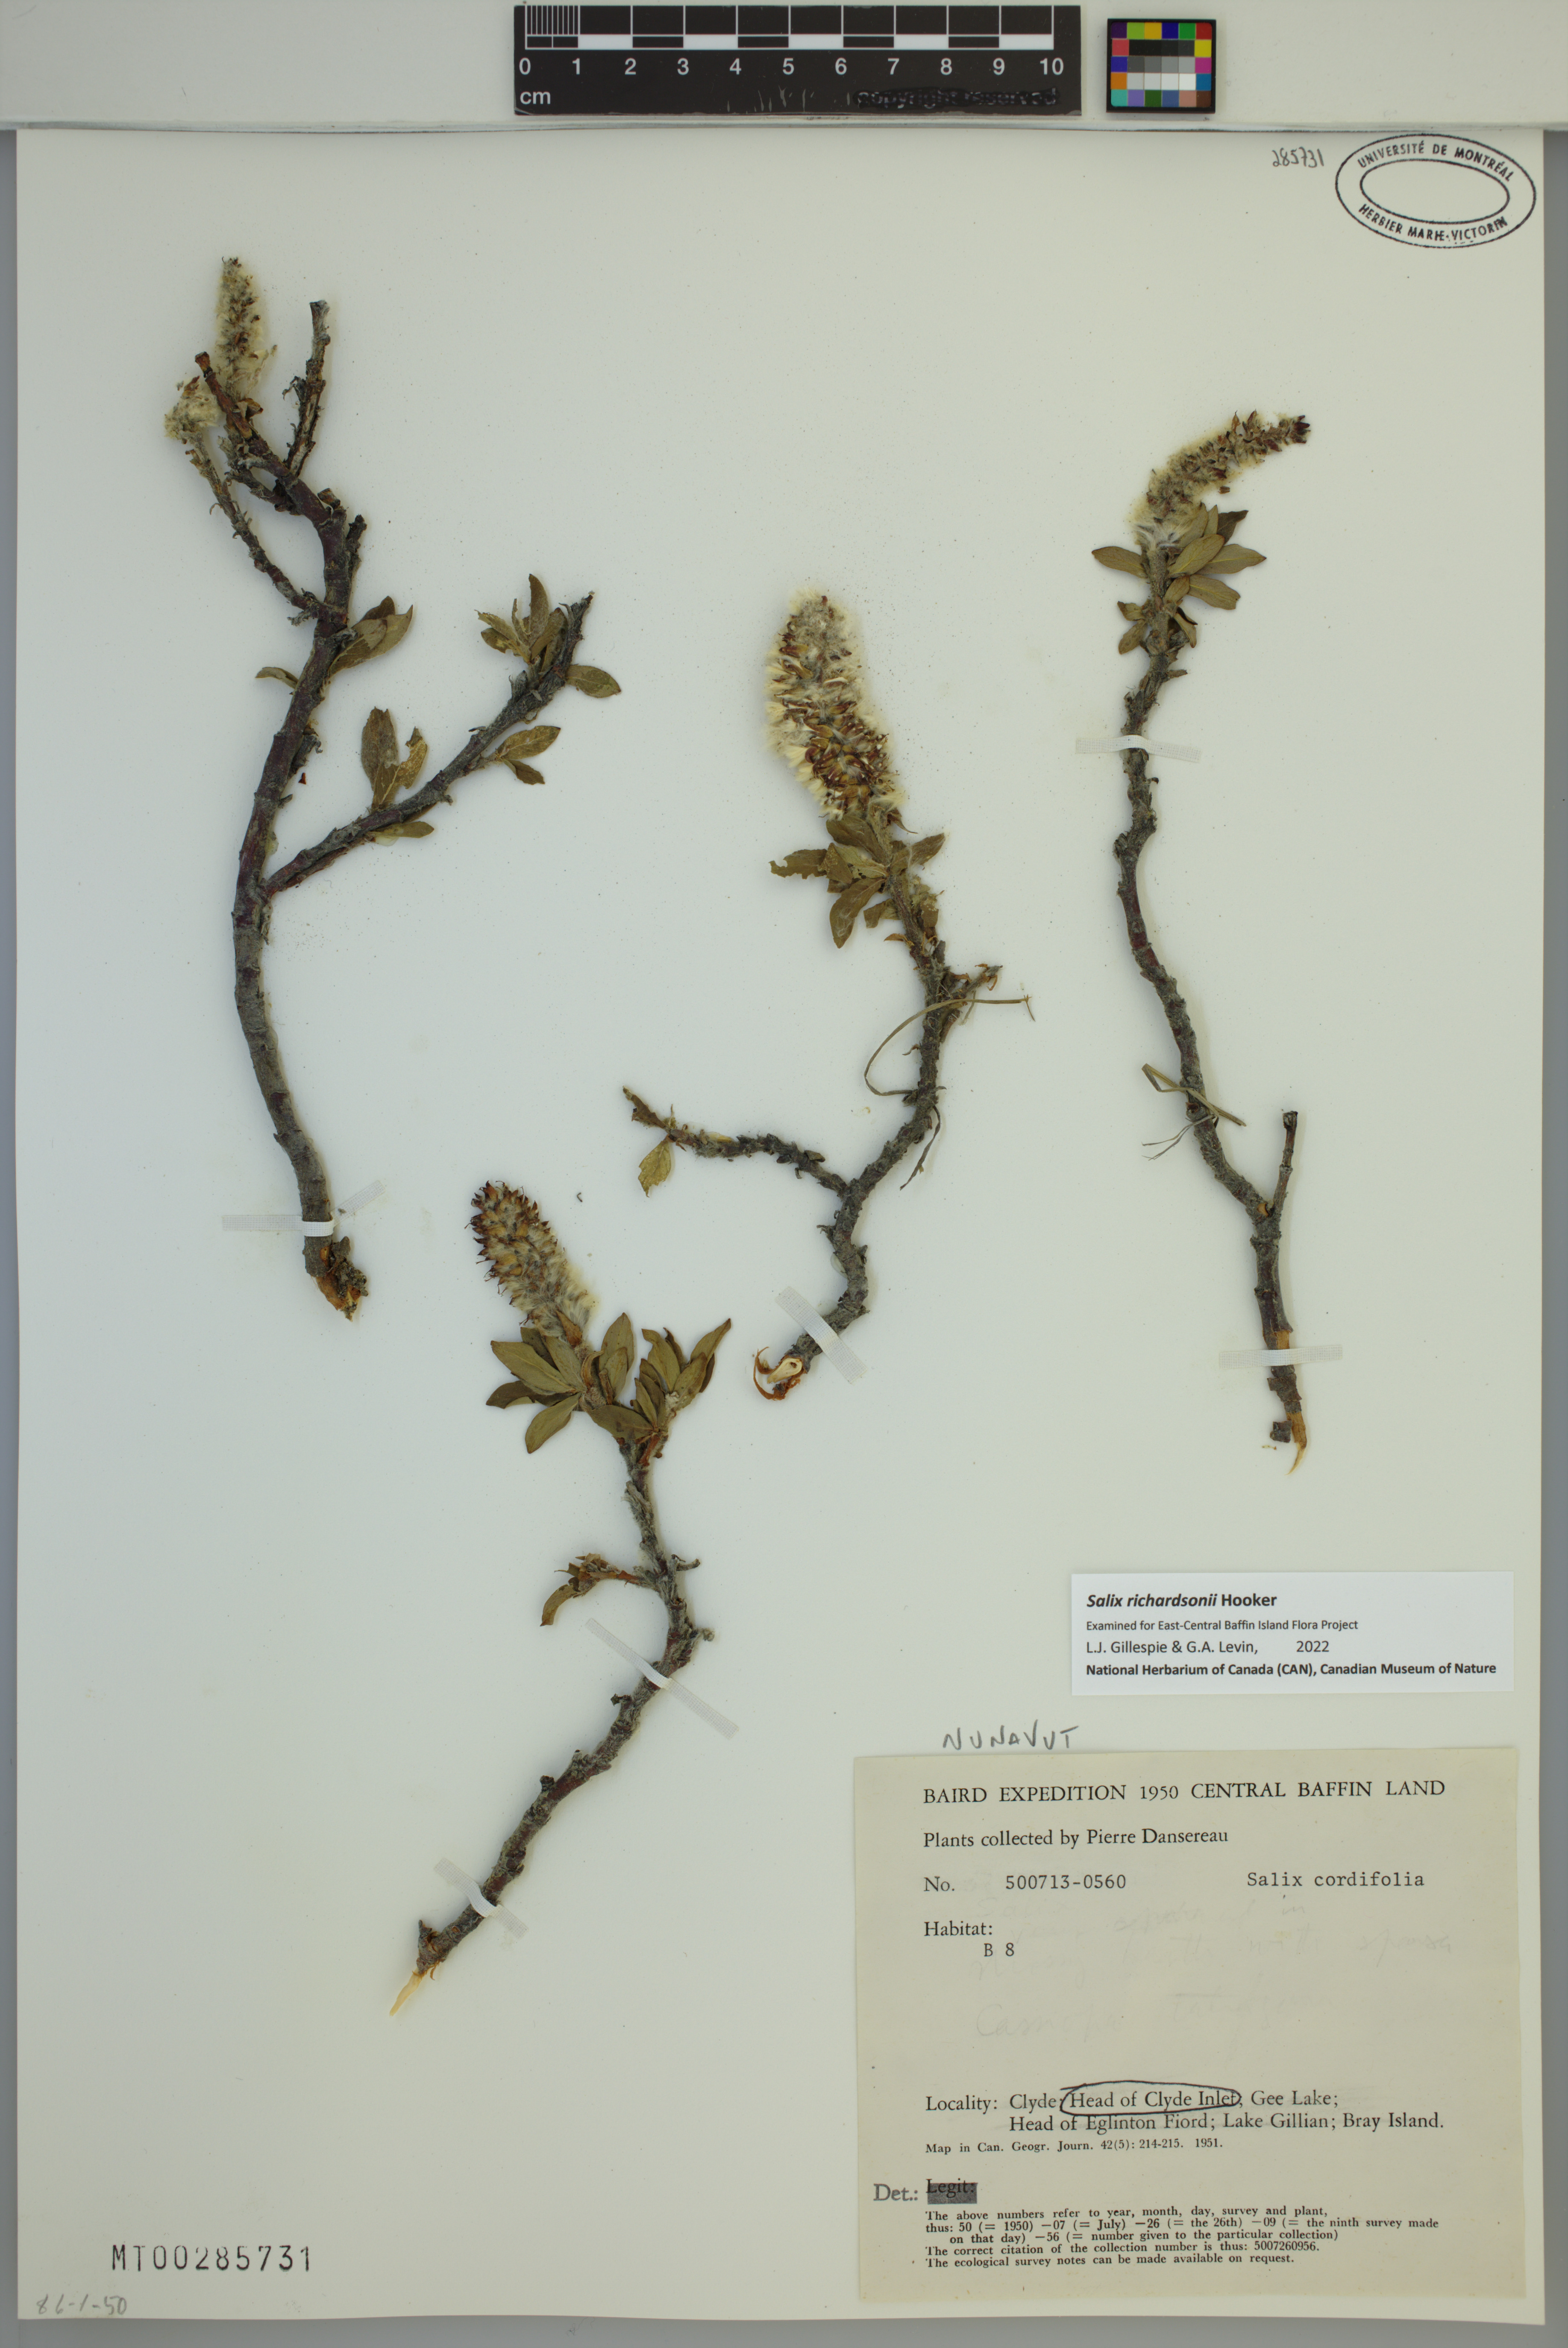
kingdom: Plantae
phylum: Tracheophyta
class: Magnoliopsida
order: Malpighiales
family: Salicaceae
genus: Salix
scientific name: Salix richardsonii
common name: Richardson’s willow
